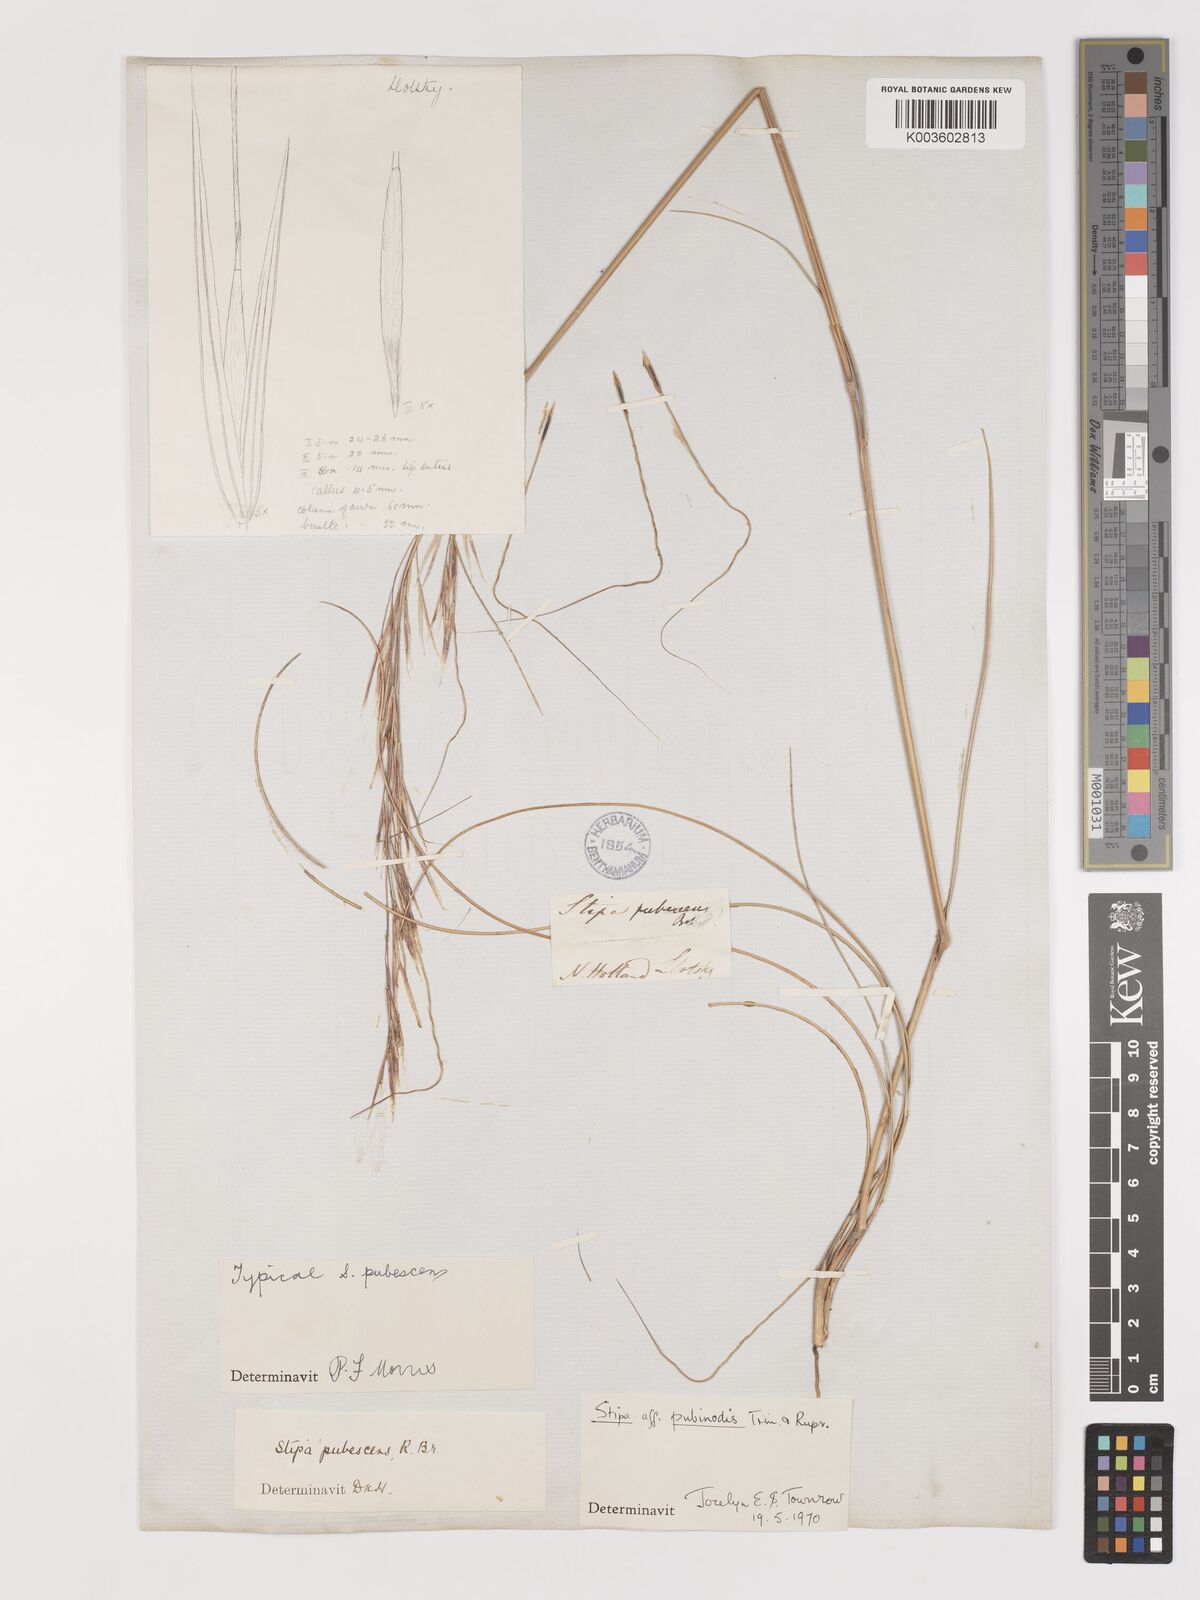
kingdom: Plantae
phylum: Tracheophyta
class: Liliopsida
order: Poales
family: Poaceae
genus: Austrostipa
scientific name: Austrostipa pubescens
